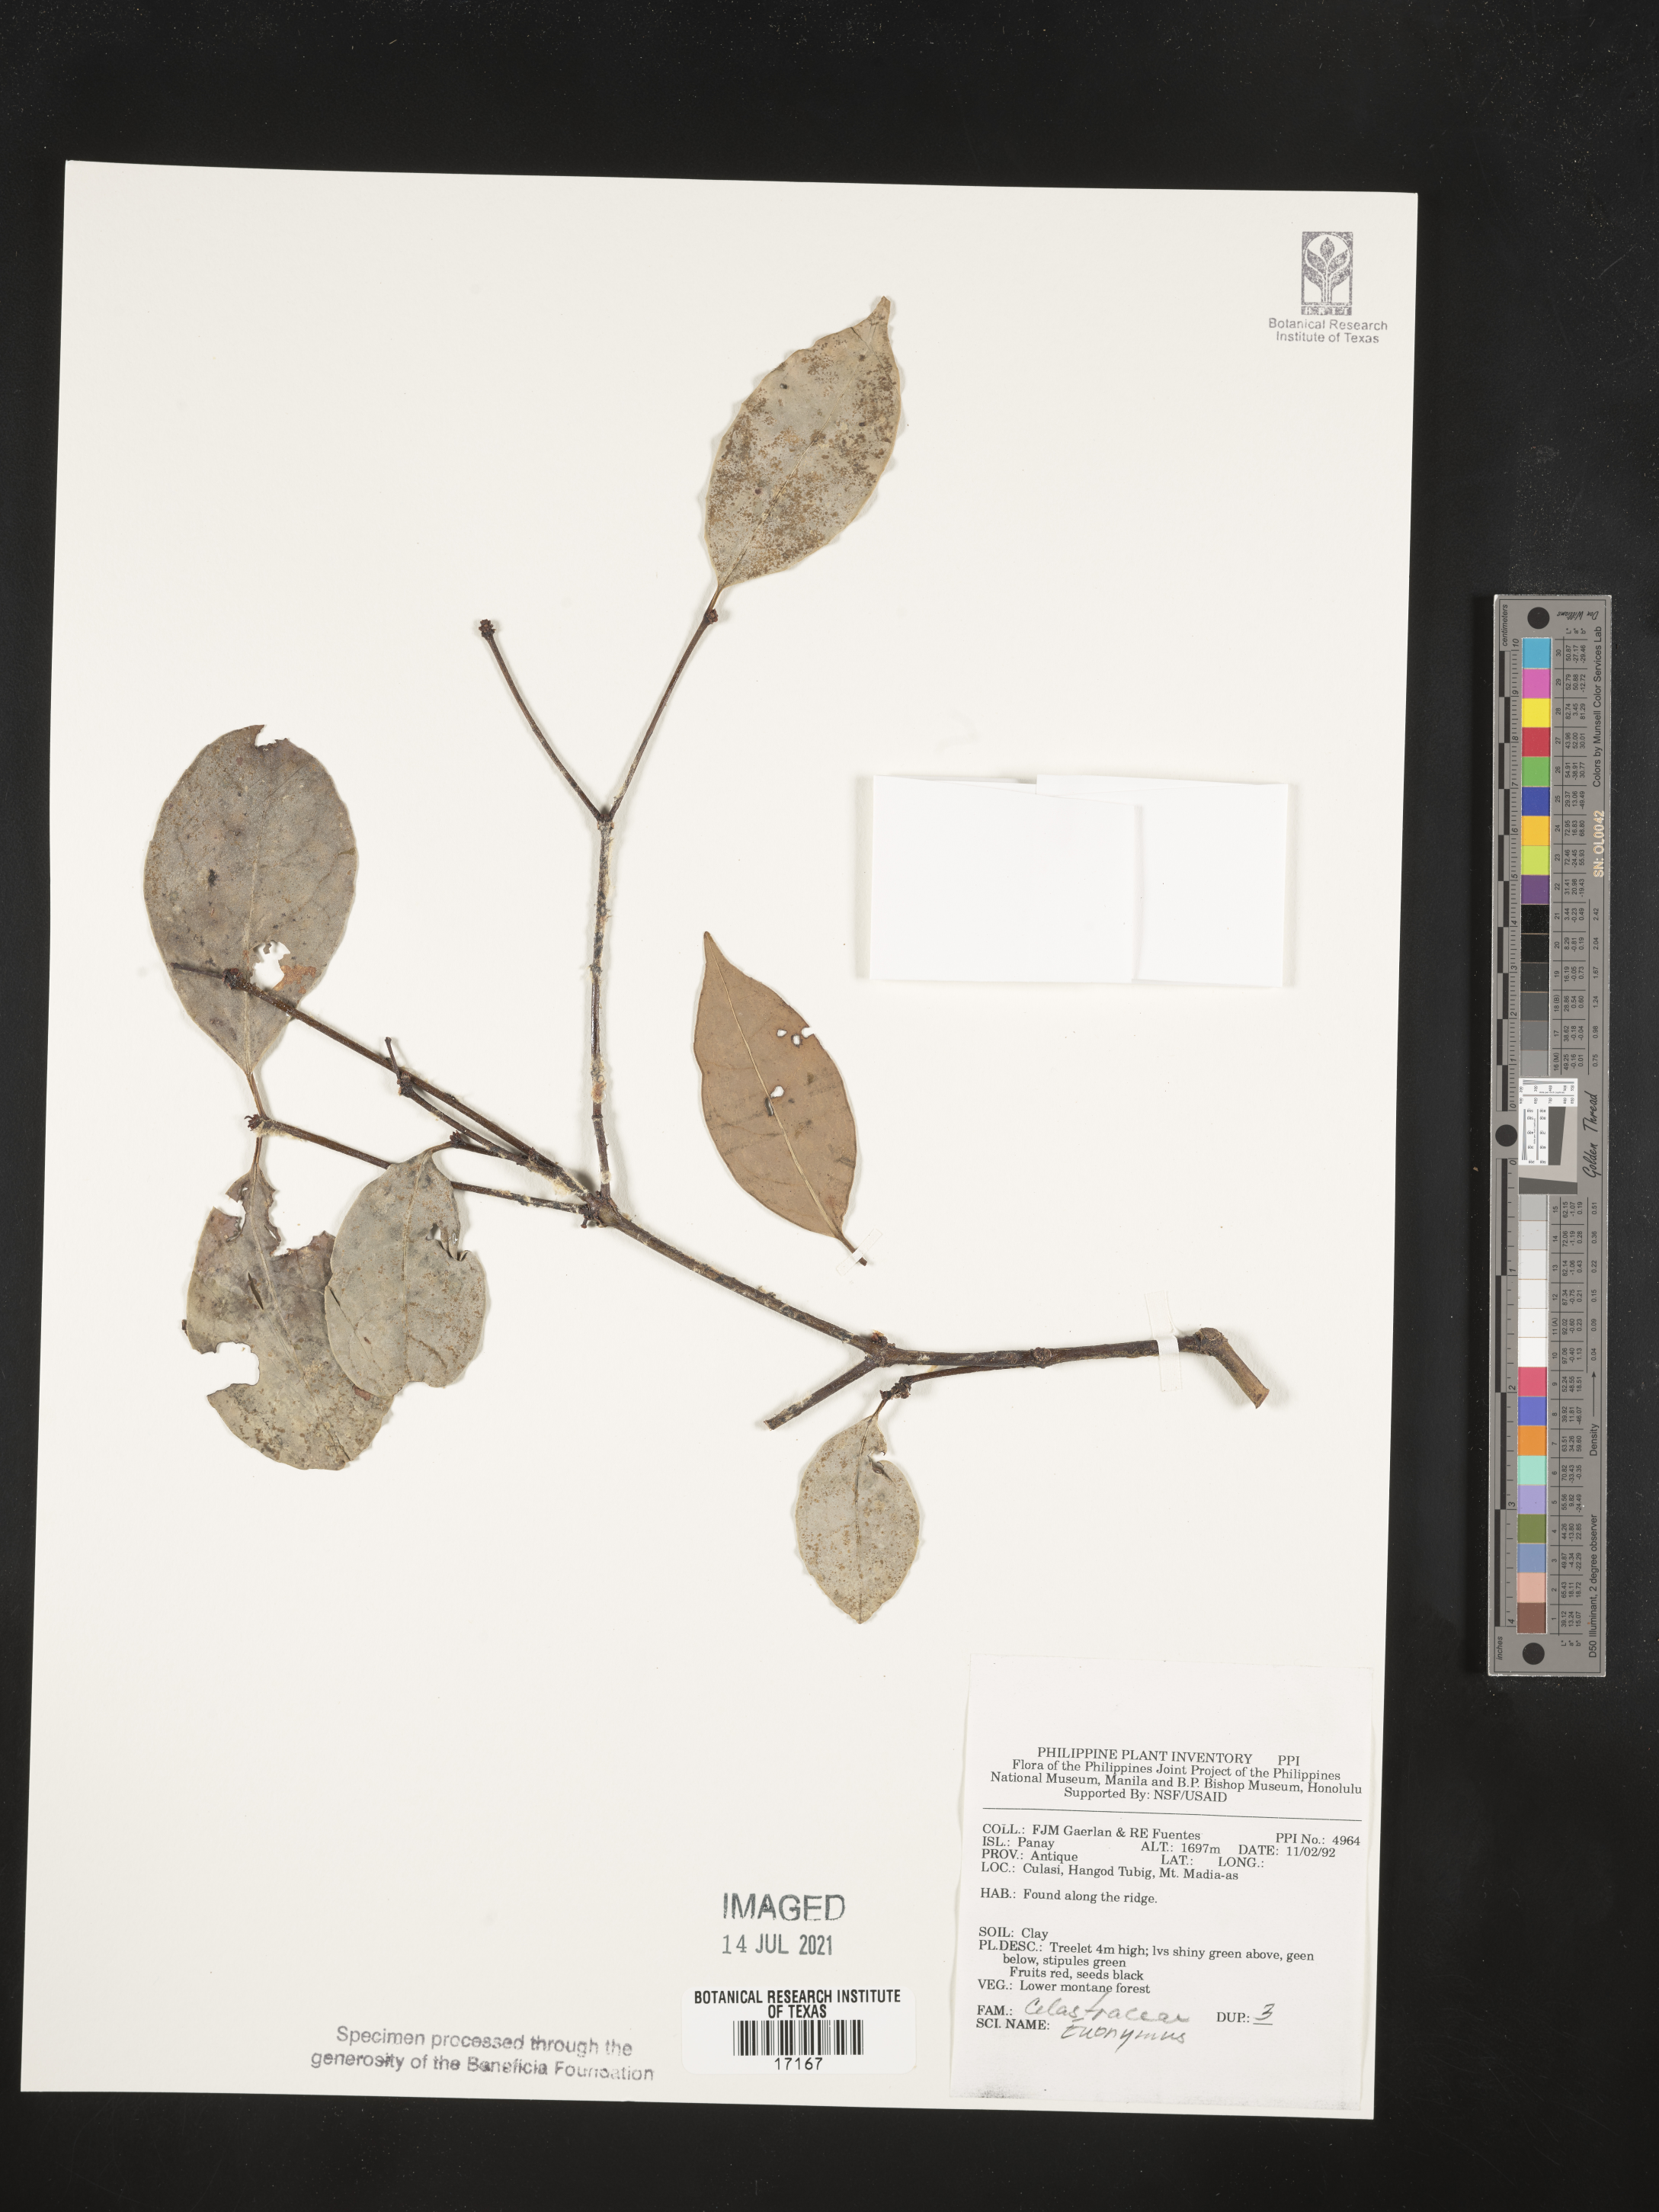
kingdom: Plantae
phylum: Tracheophyta
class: Magnoliopsida
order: Celastrales
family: Celastraceae
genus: Euonymus
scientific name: Euonymus
